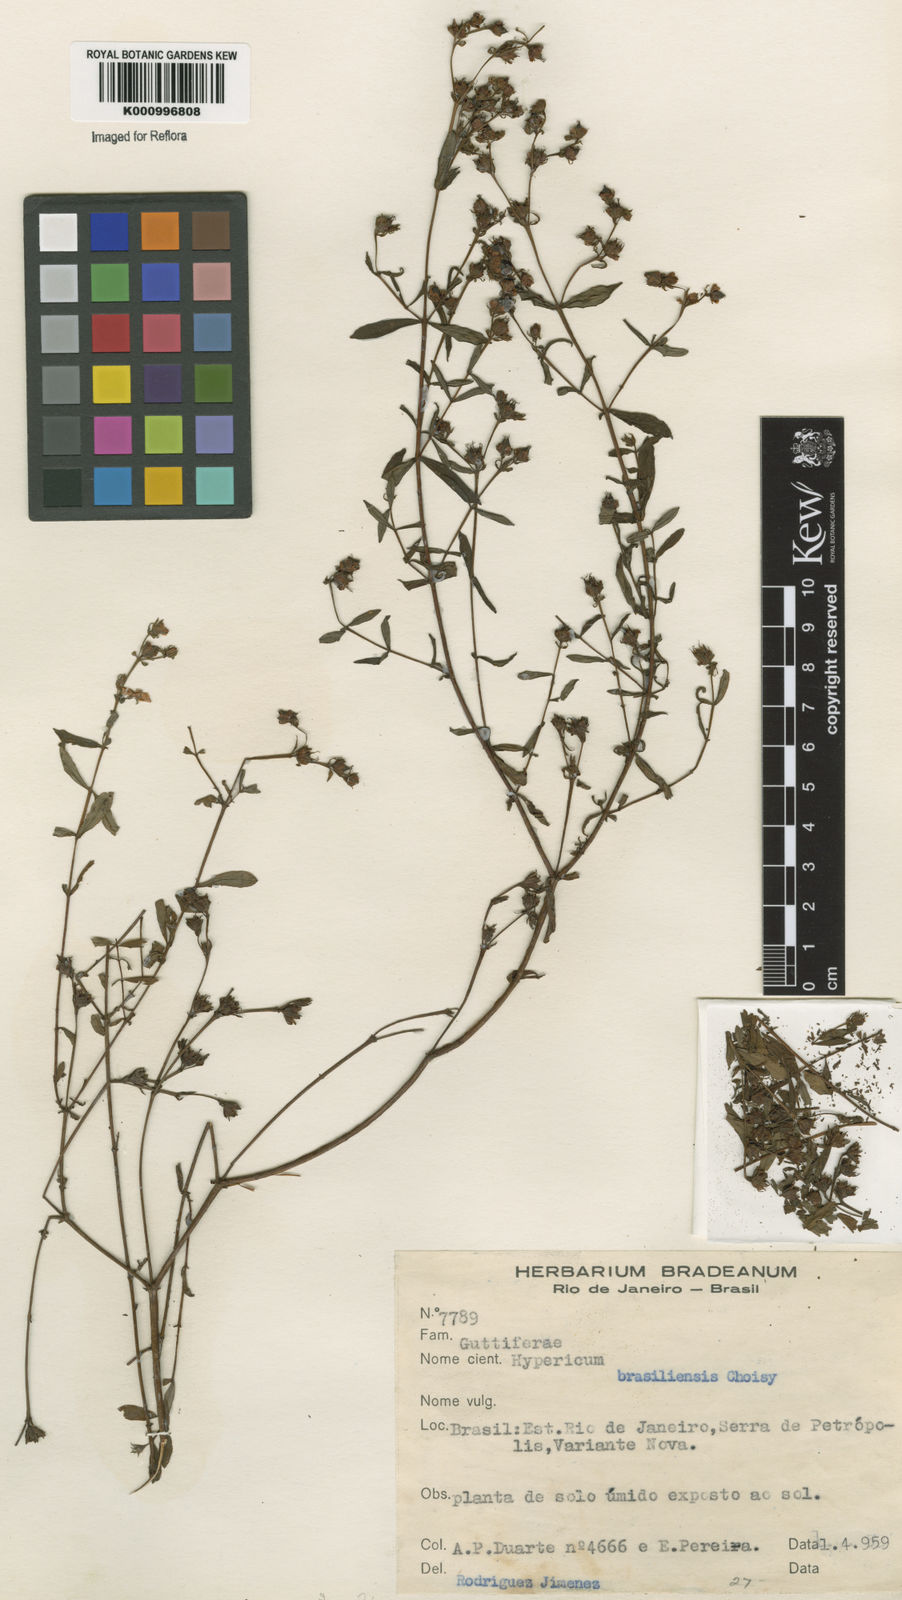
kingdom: Plantae
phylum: Tracheophyta
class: Magnoliopsida
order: Malpighiales
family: Hypericaceae
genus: Hypericum
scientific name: Hypericum brasiliense
